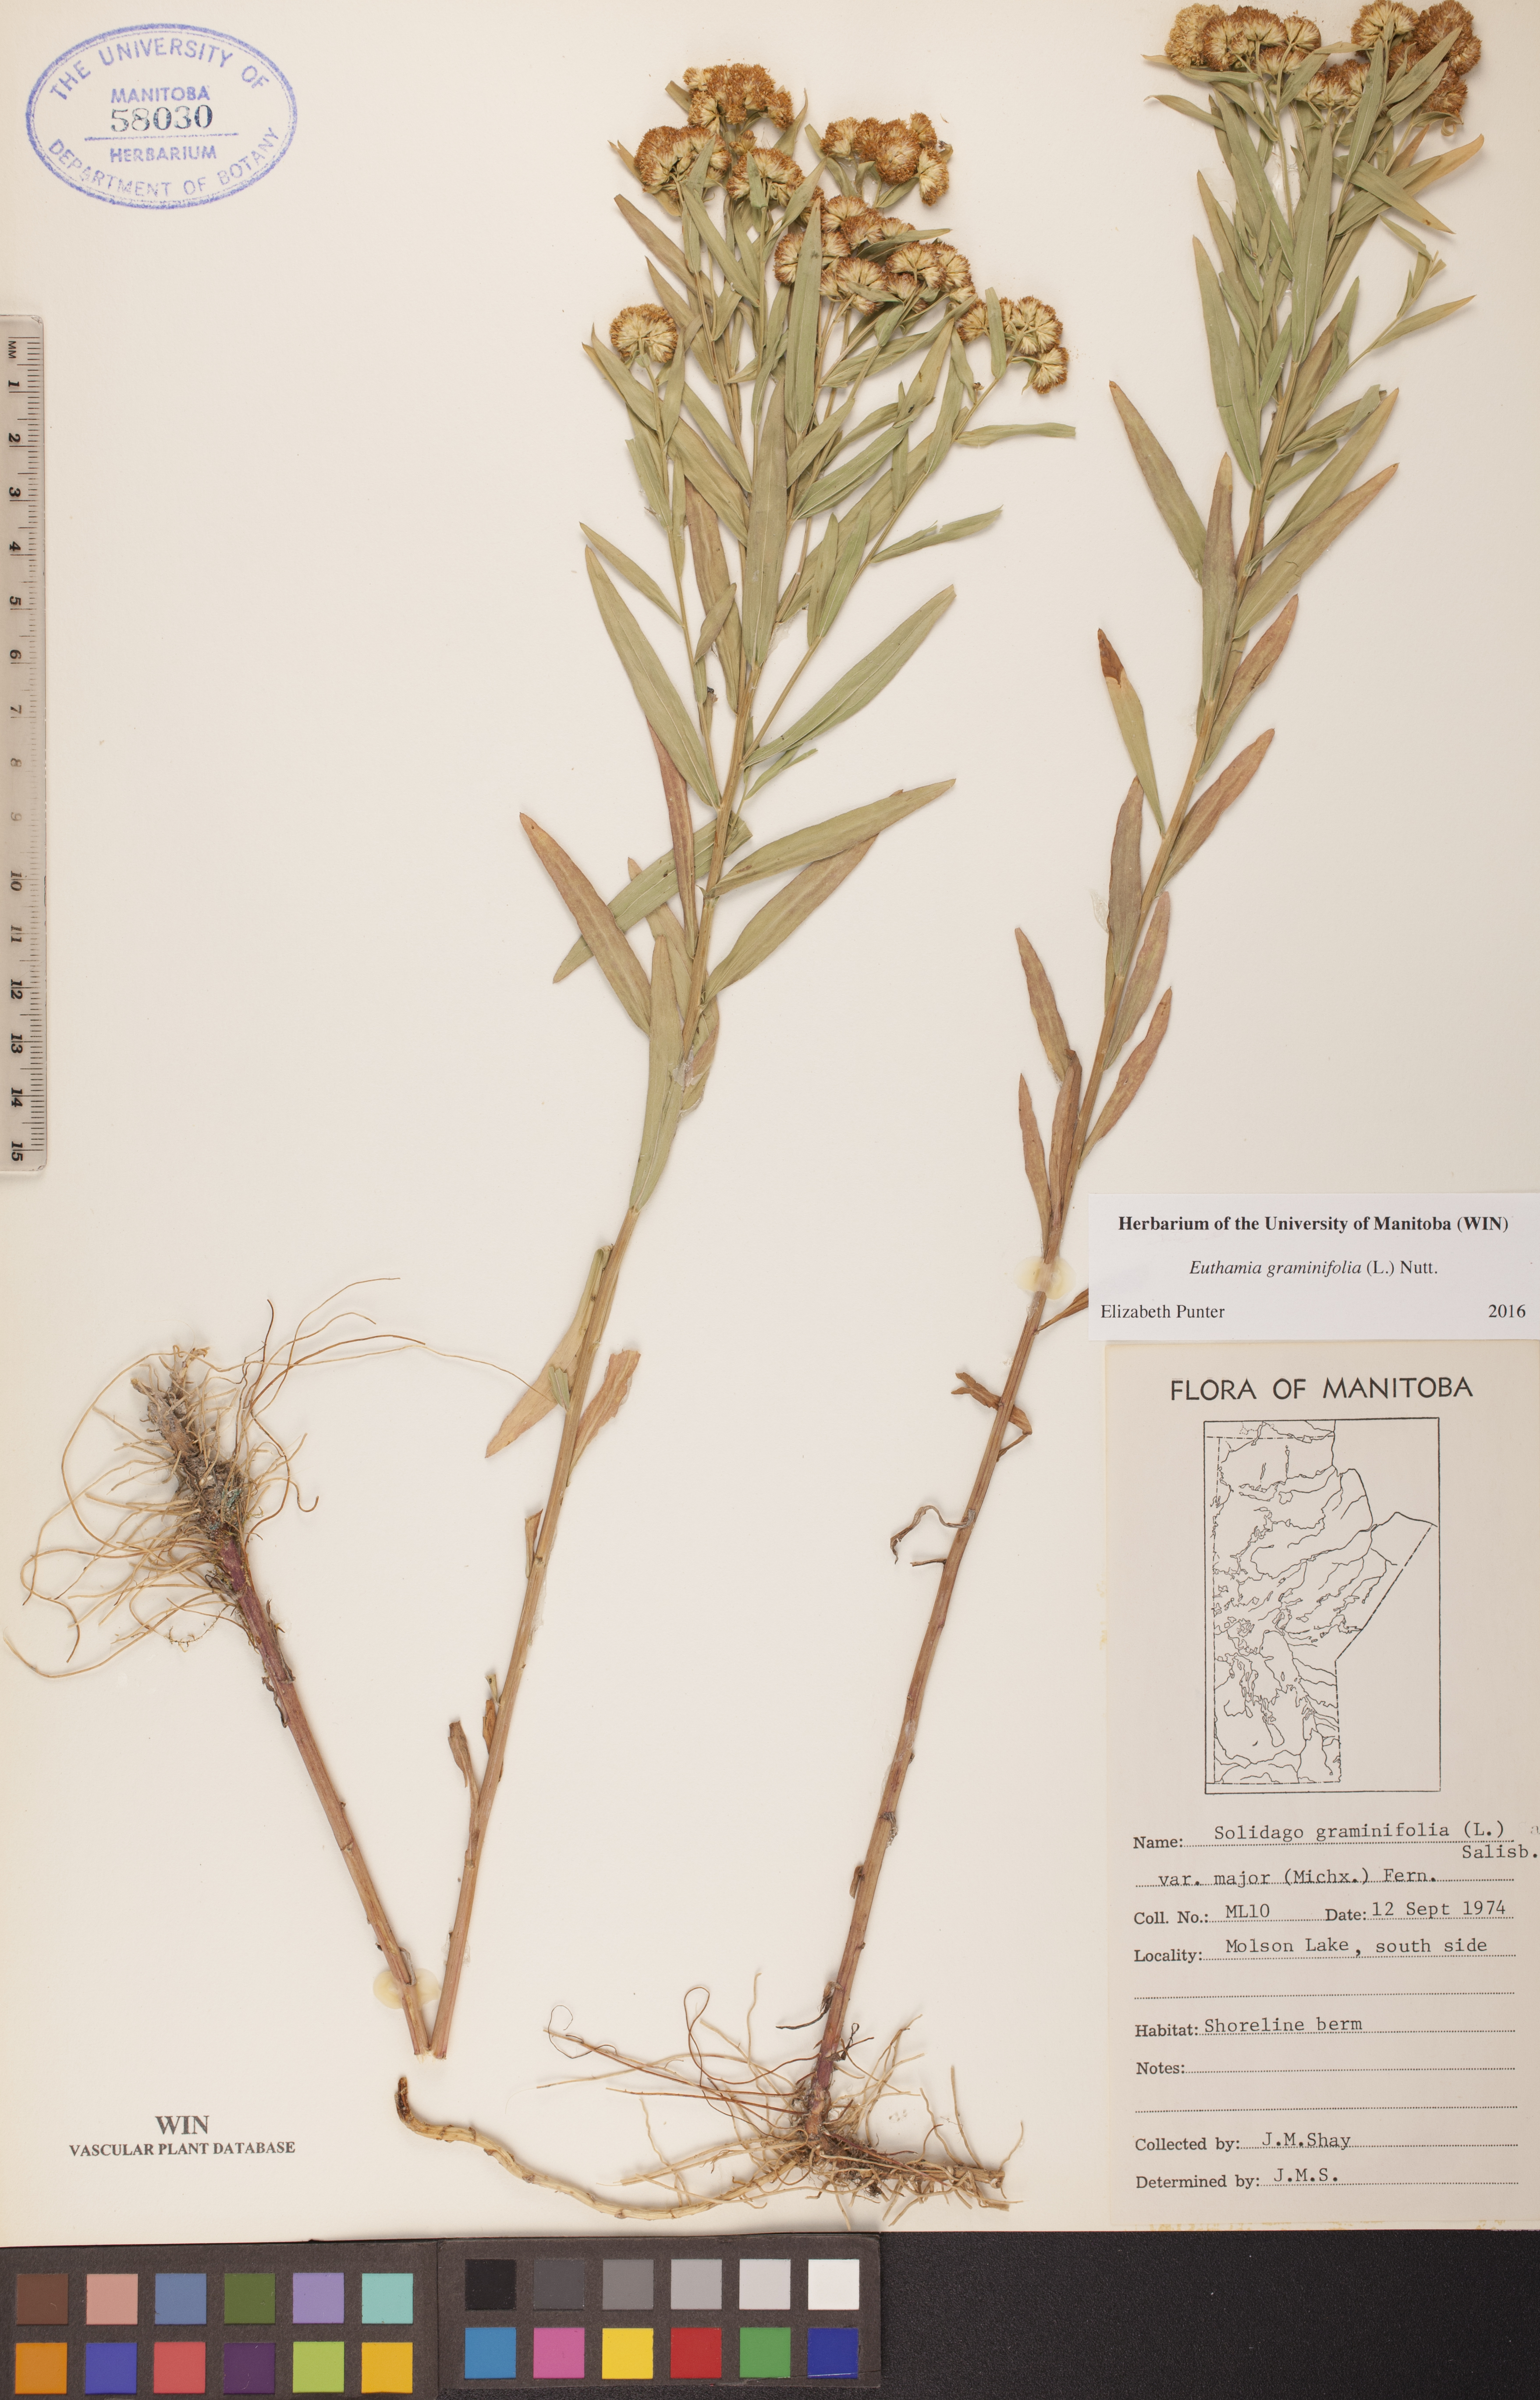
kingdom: Plantae
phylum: Tracheophyta
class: Magnoliopsida
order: Asterales
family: Asteraceae
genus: Euthamia
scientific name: Euthamia graminifolia
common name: Common goldentop
